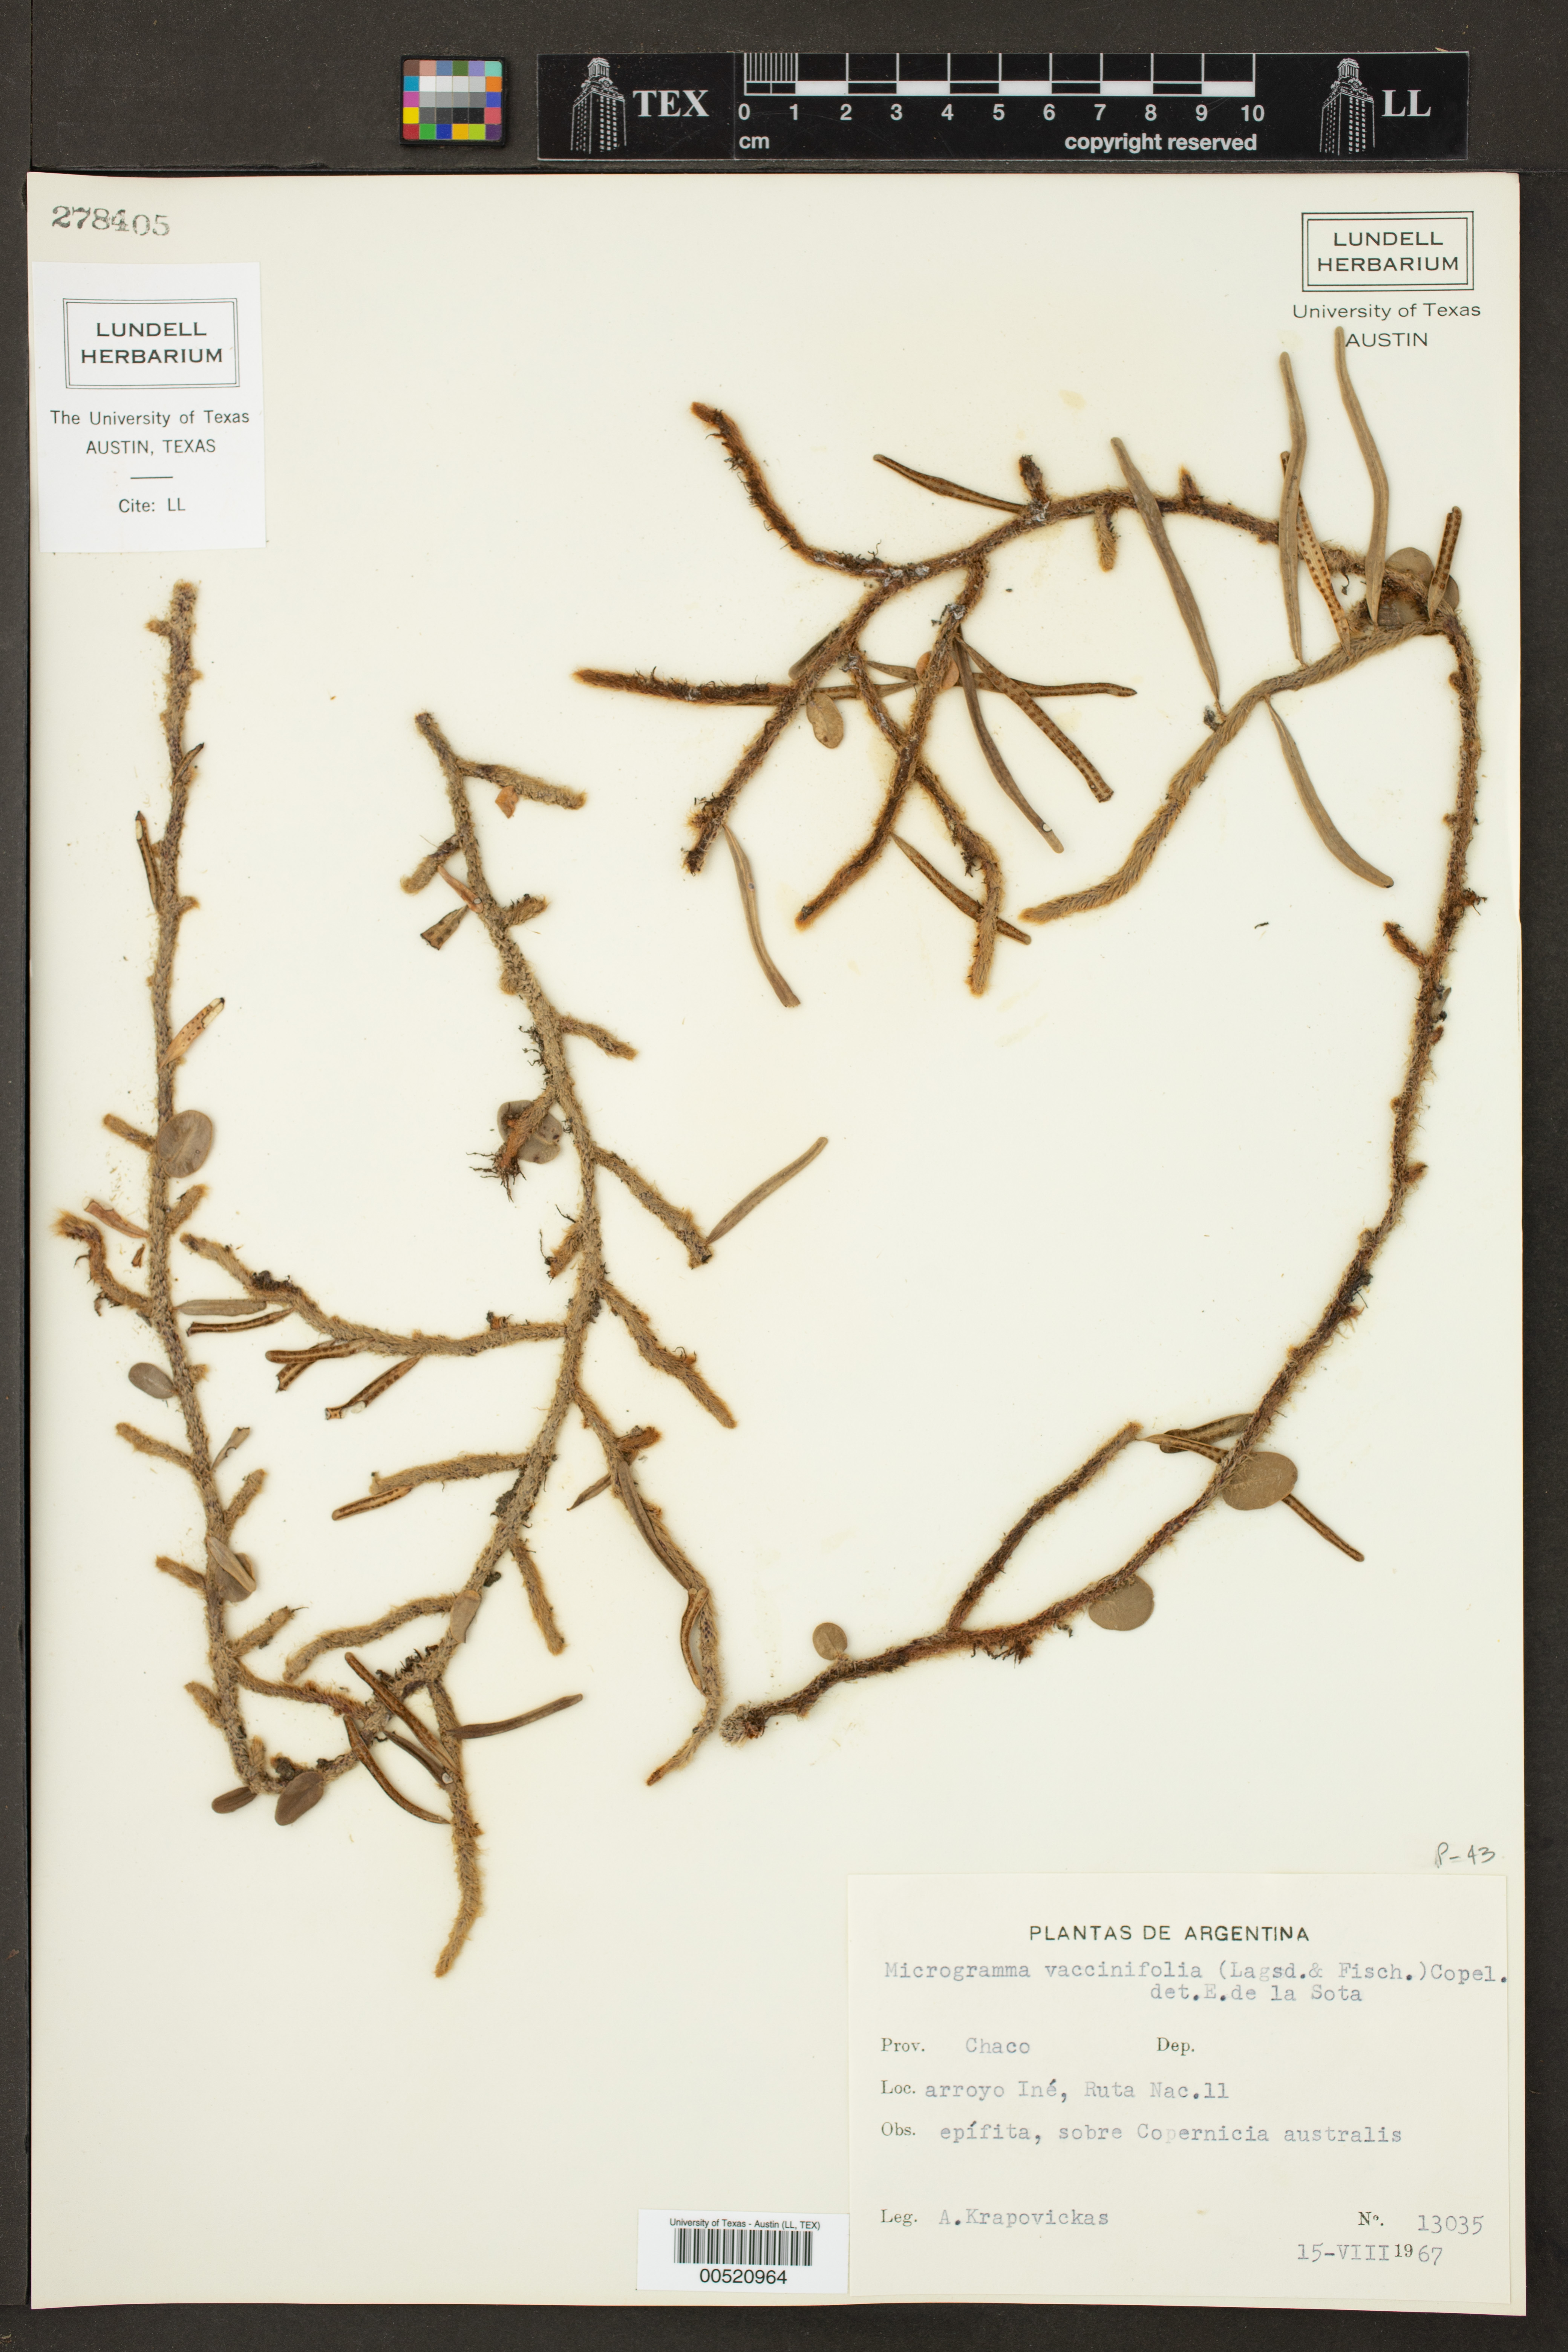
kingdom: Plantae
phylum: Tracheophyta
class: Polypodiopsida
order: Polypodiales
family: Polypodiaceae
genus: Microgramma
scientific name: Microgramma vaccinifolia
